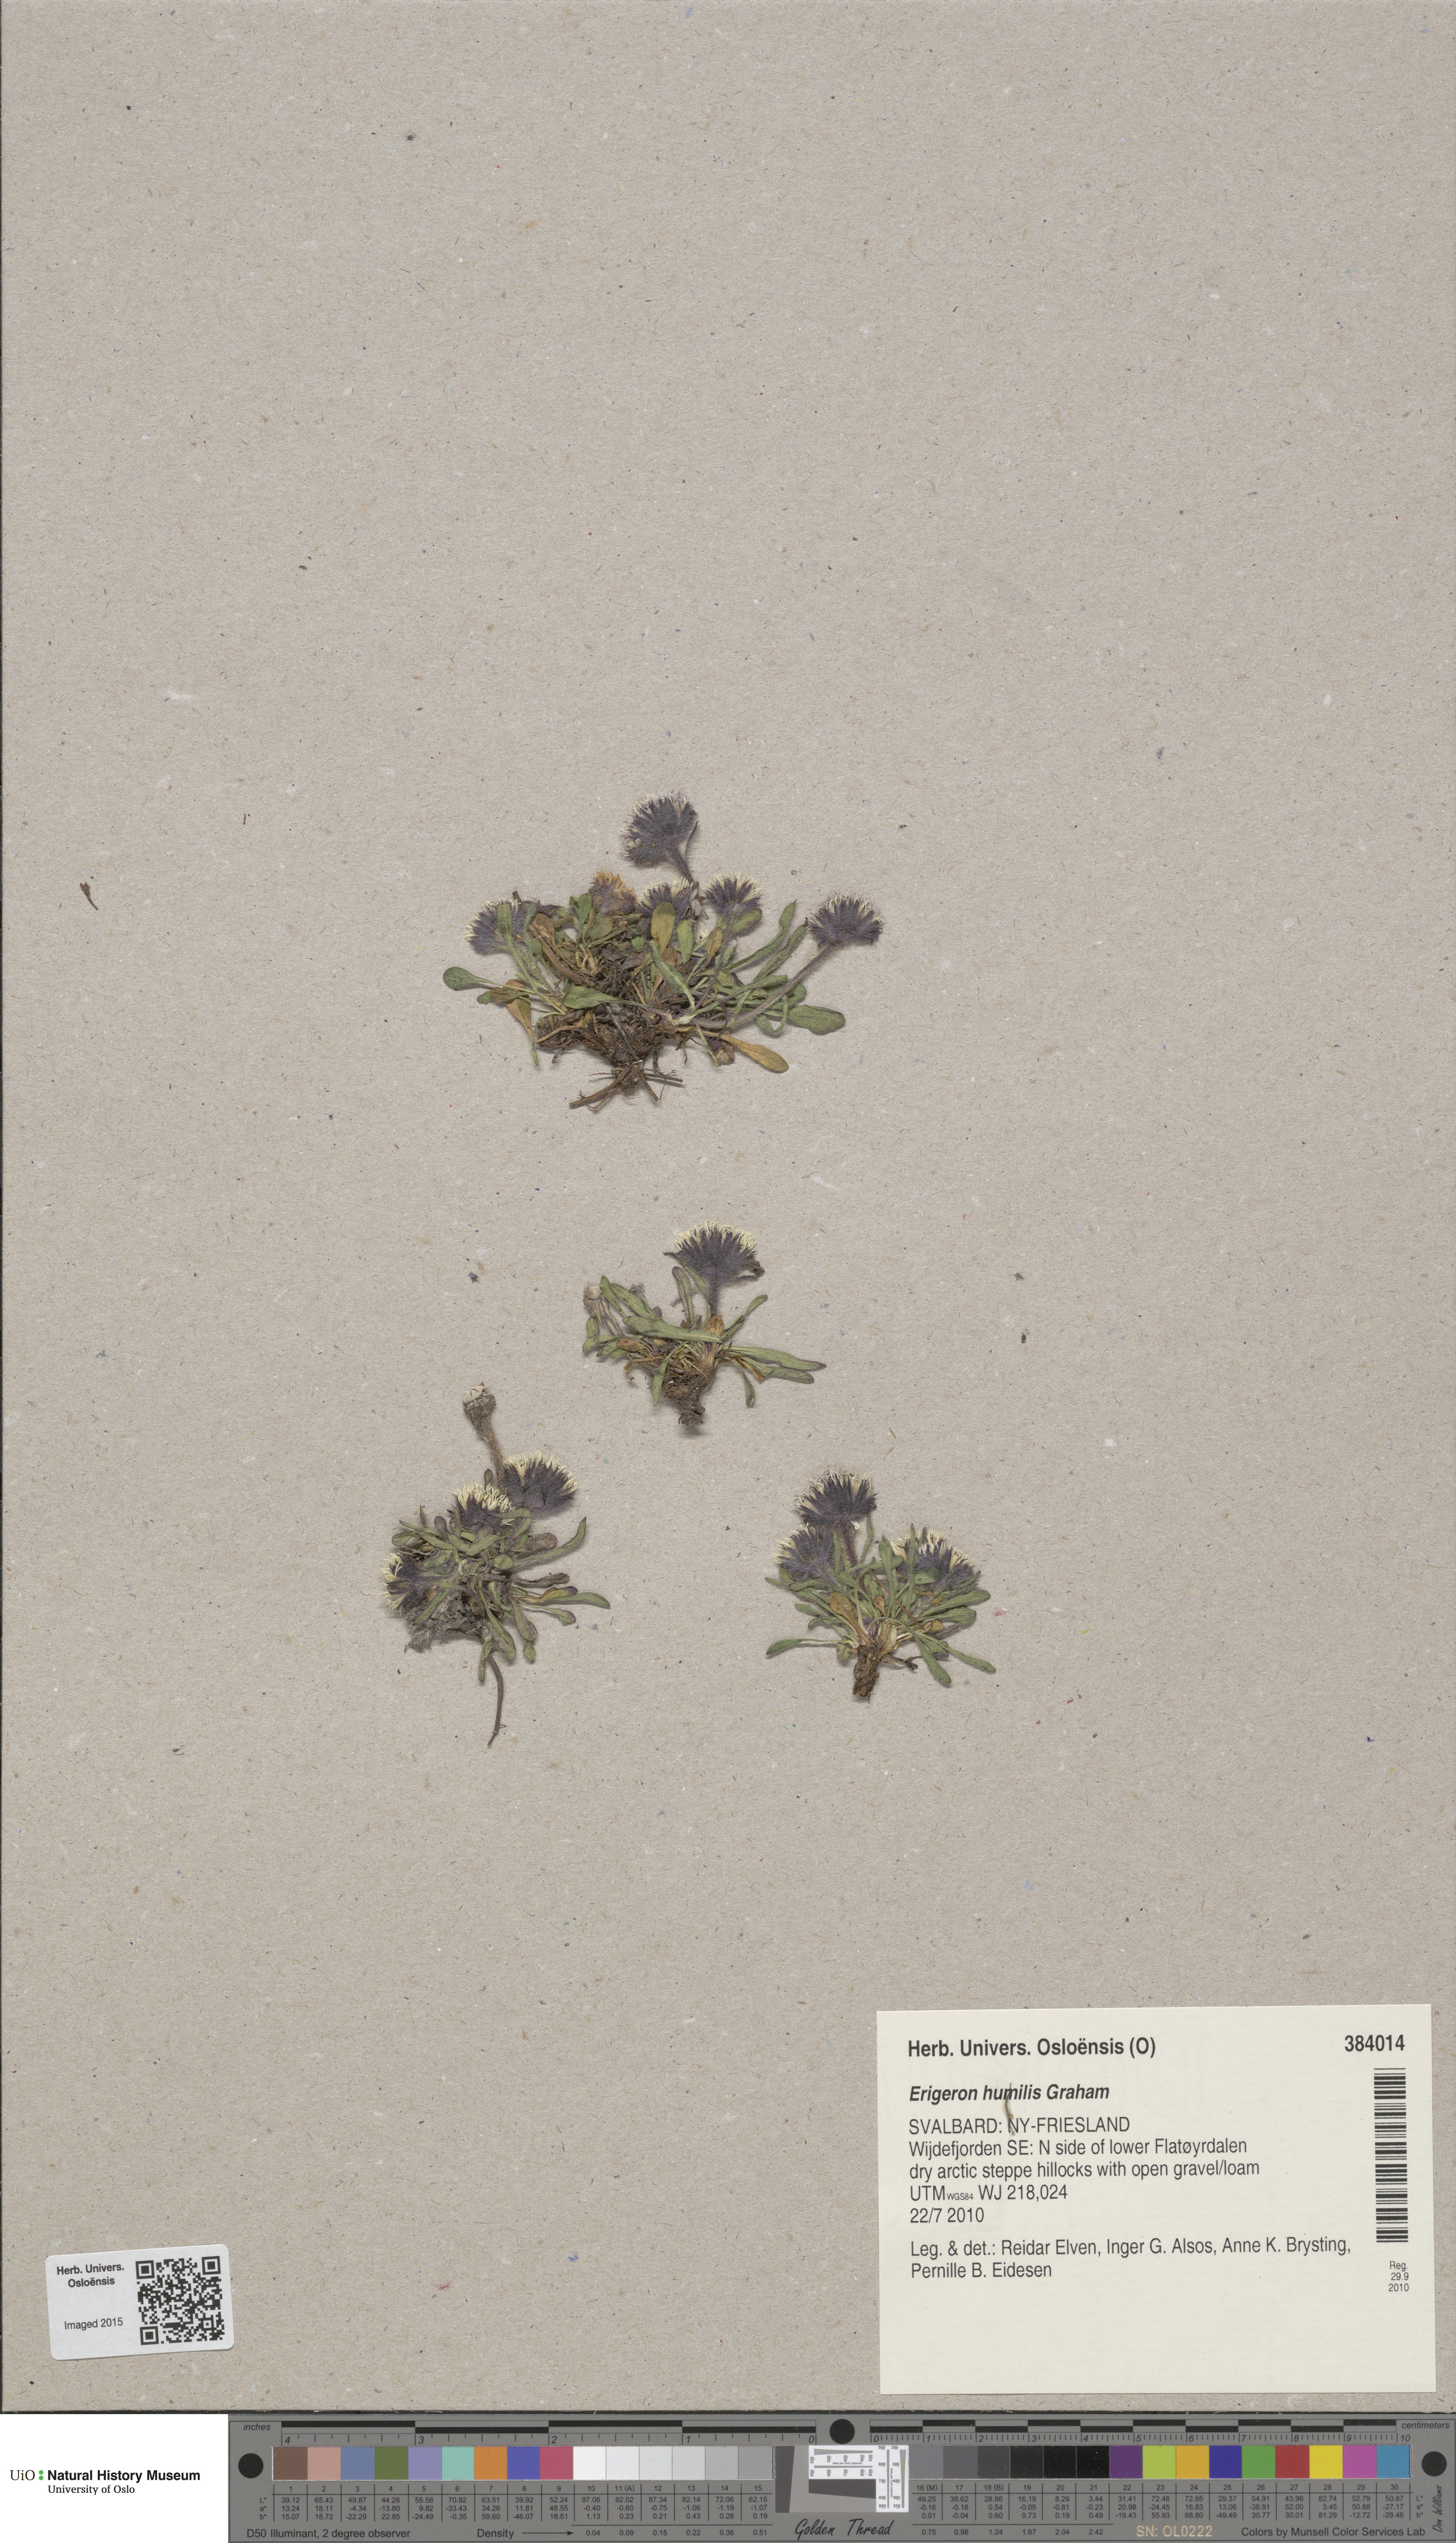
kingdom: Plantae
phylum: Tracheophyta
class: Magnoliopsida
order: Asterales
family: Asteraceae
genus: Erigeron
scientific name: Erigeron humilis
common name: Arctic-alpine fleabane
